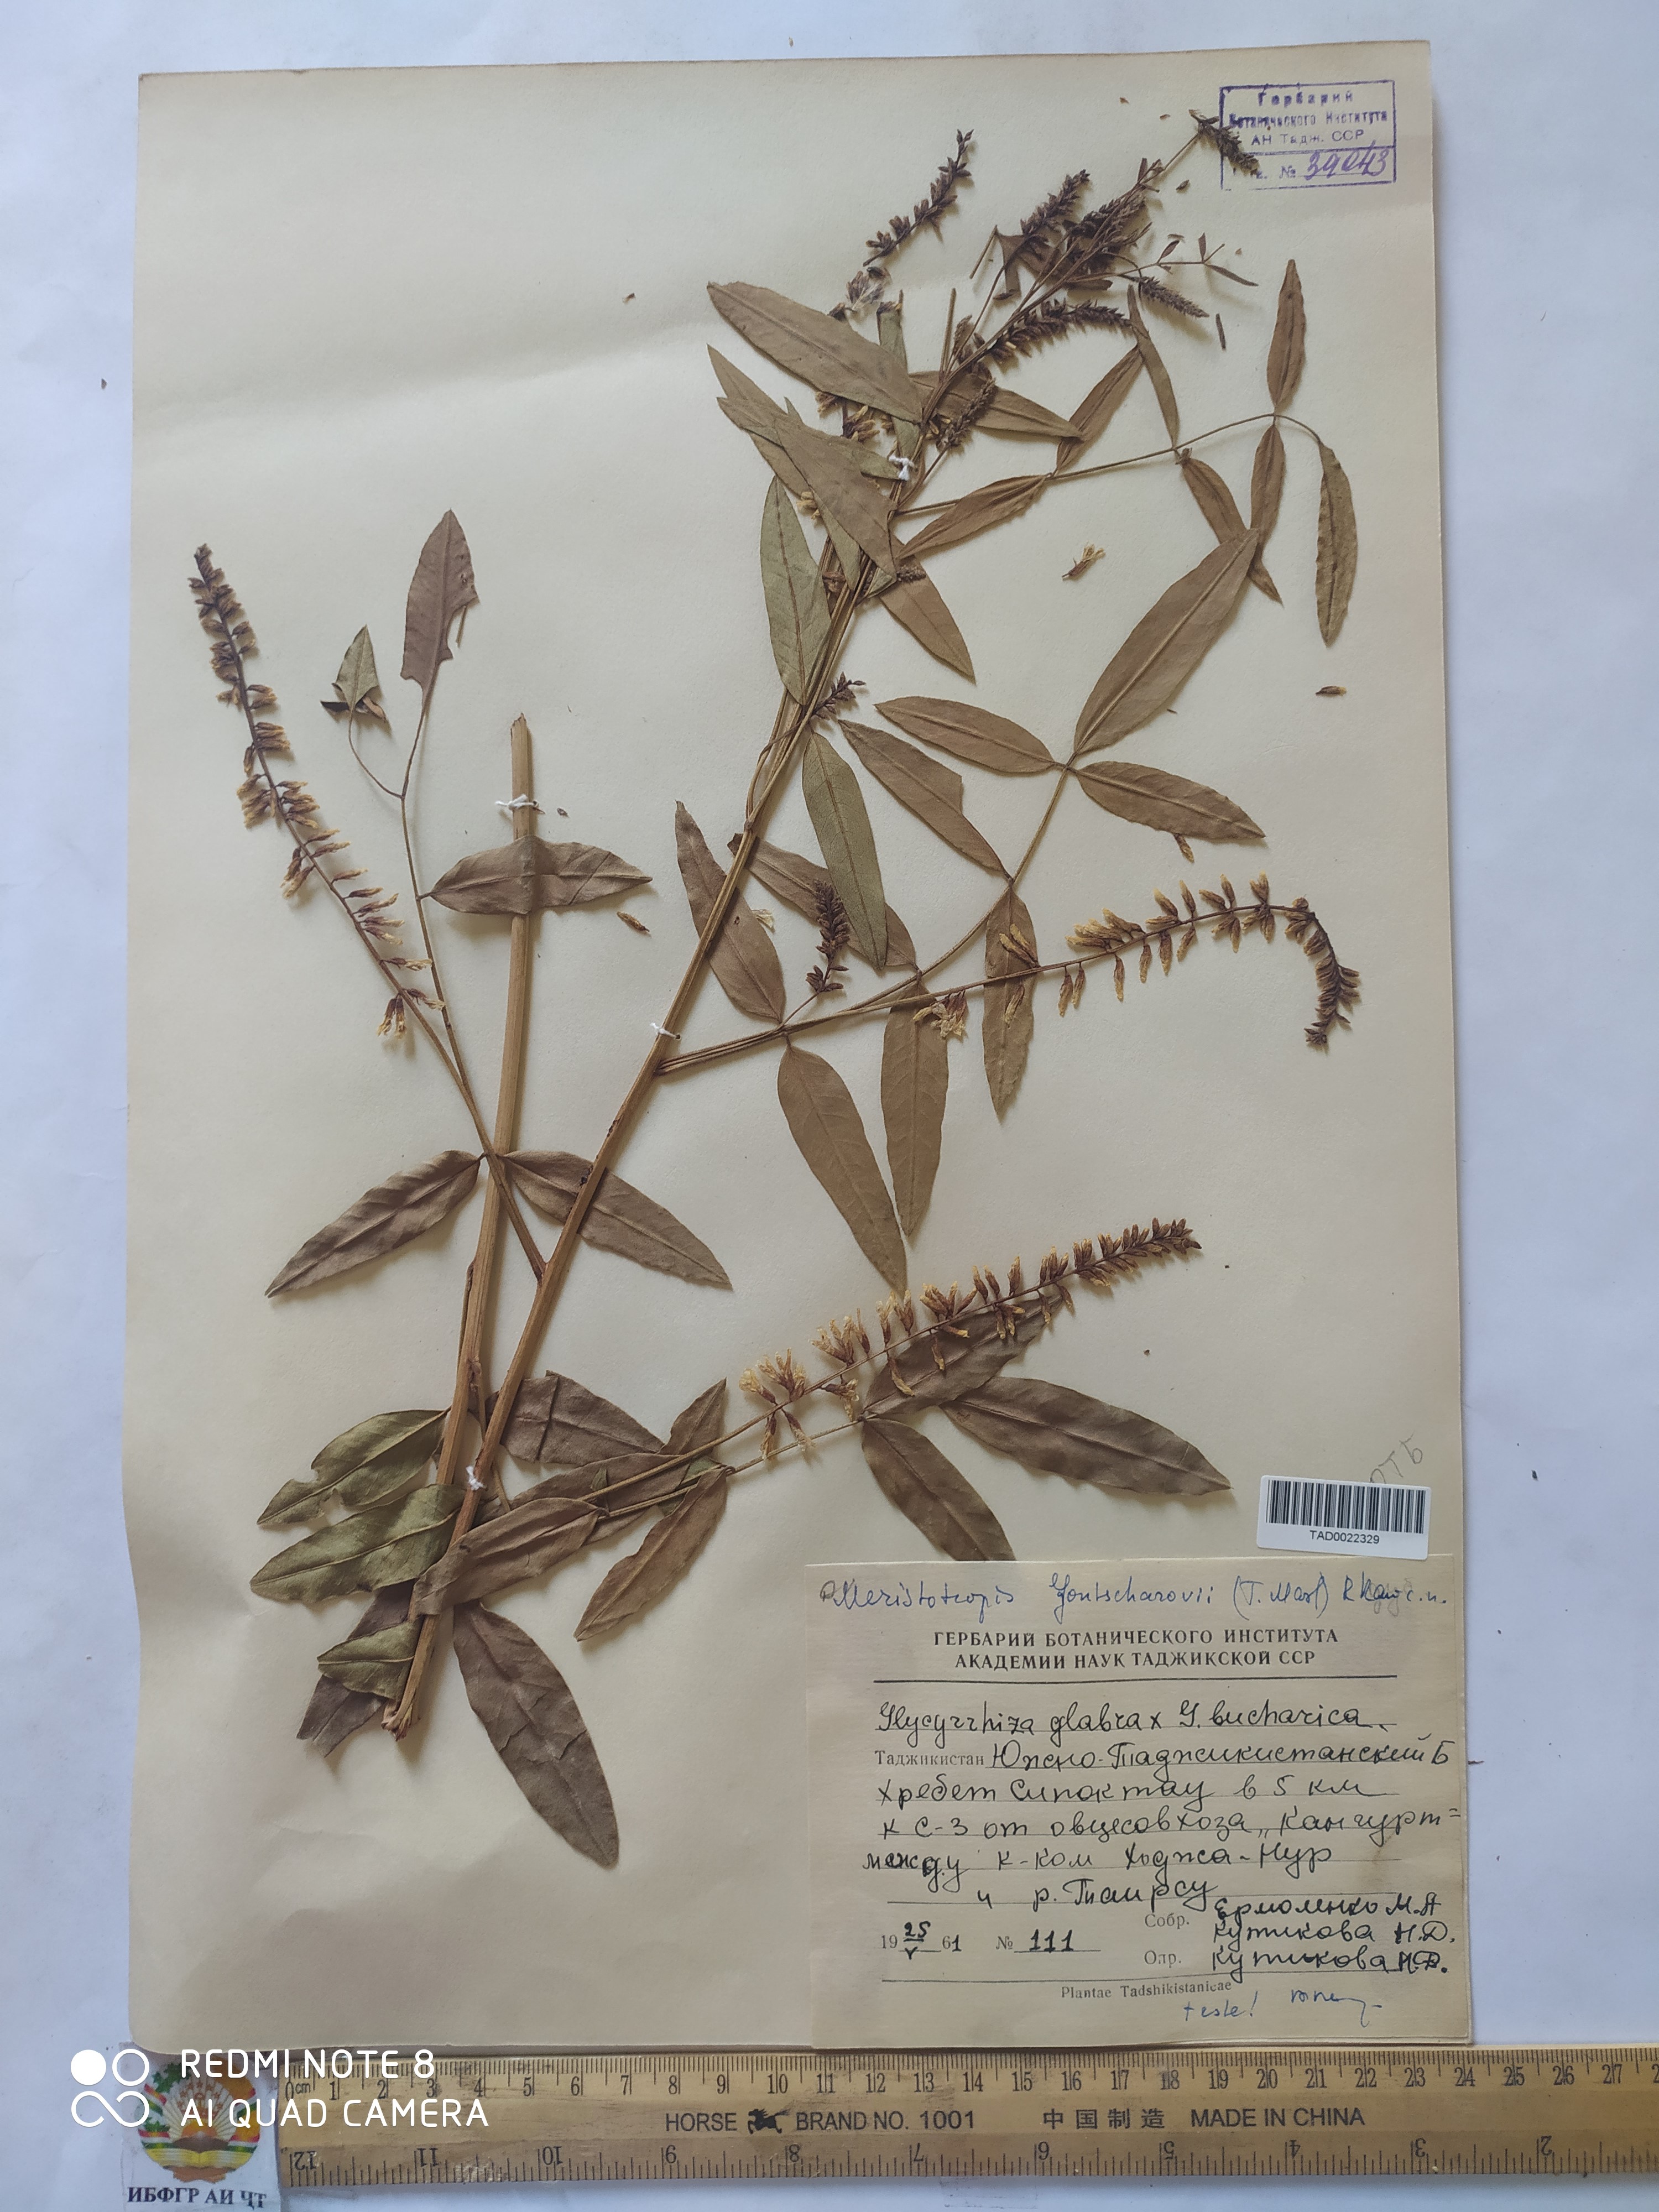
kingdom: Plantae
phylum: Tracheophyta
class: Magnoliopsida
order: Fabales
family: Fabaceae
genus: Glycyrrhiza
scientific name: Glycyrrhiza gontscharovii
